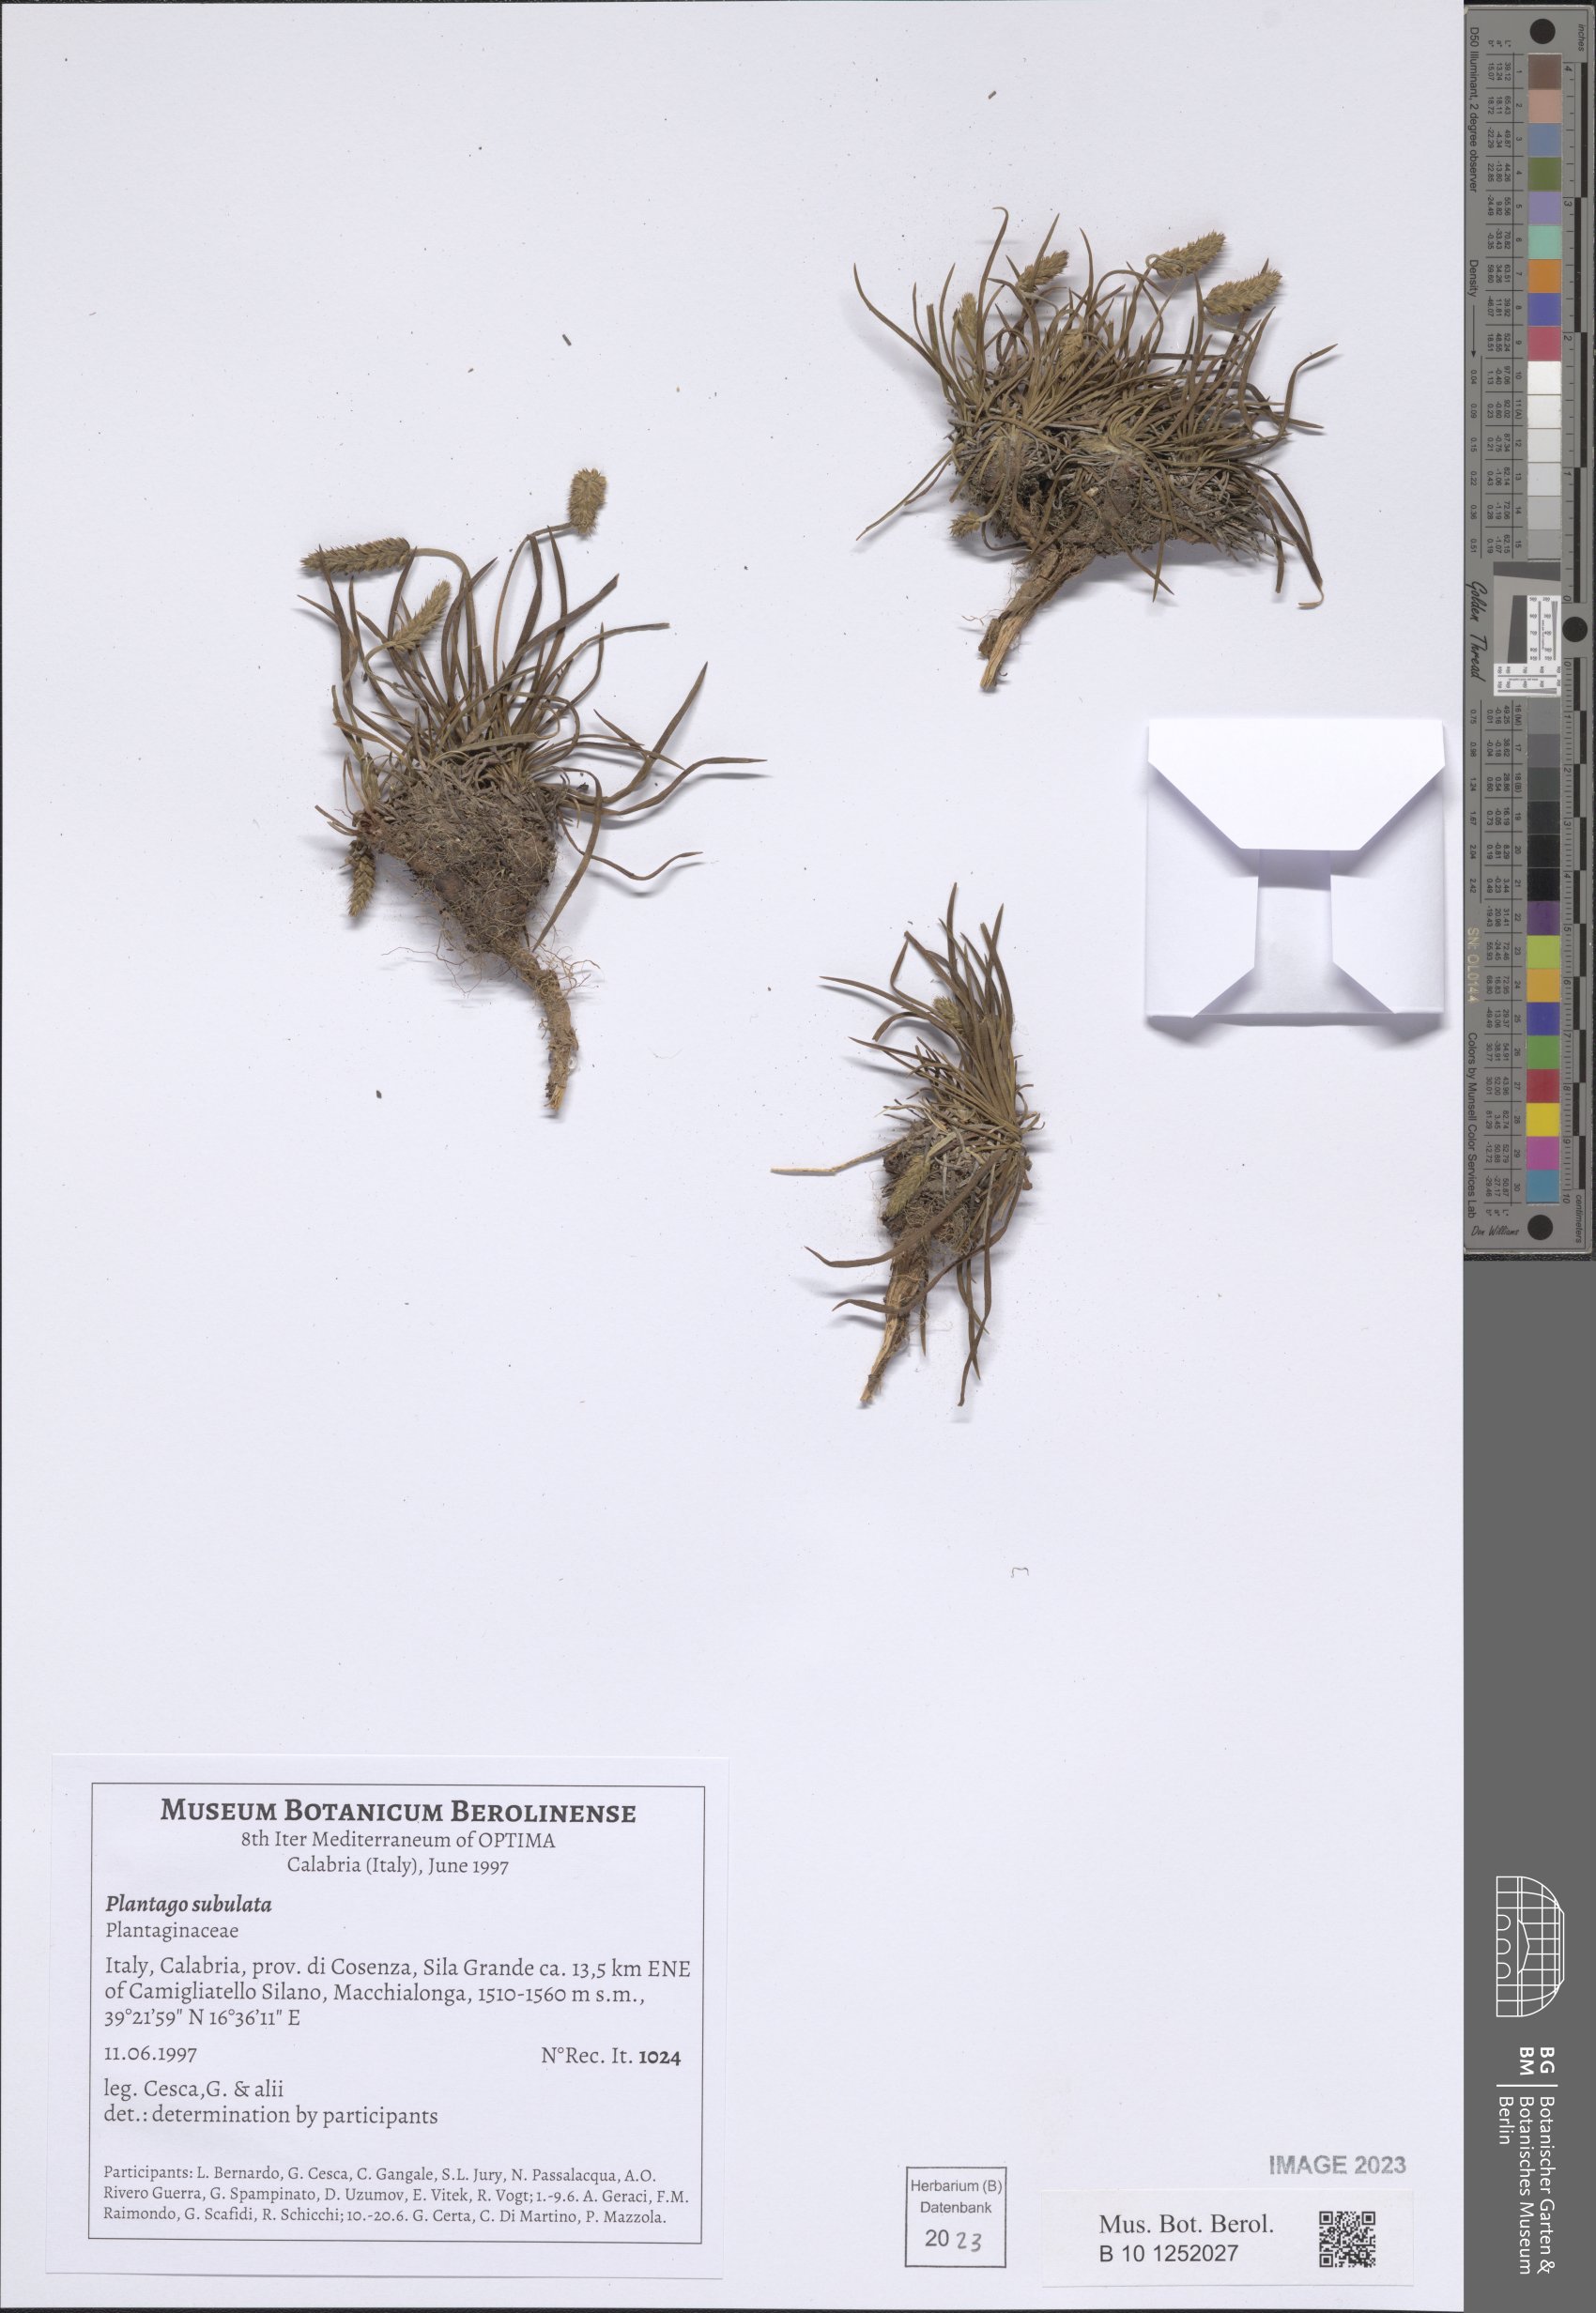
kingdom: Plantae
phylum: Tracheophyta
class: Magnoliopsida
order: Lamiales
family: Plantaginaceae
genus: Plantago
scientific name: Plantago subulata
